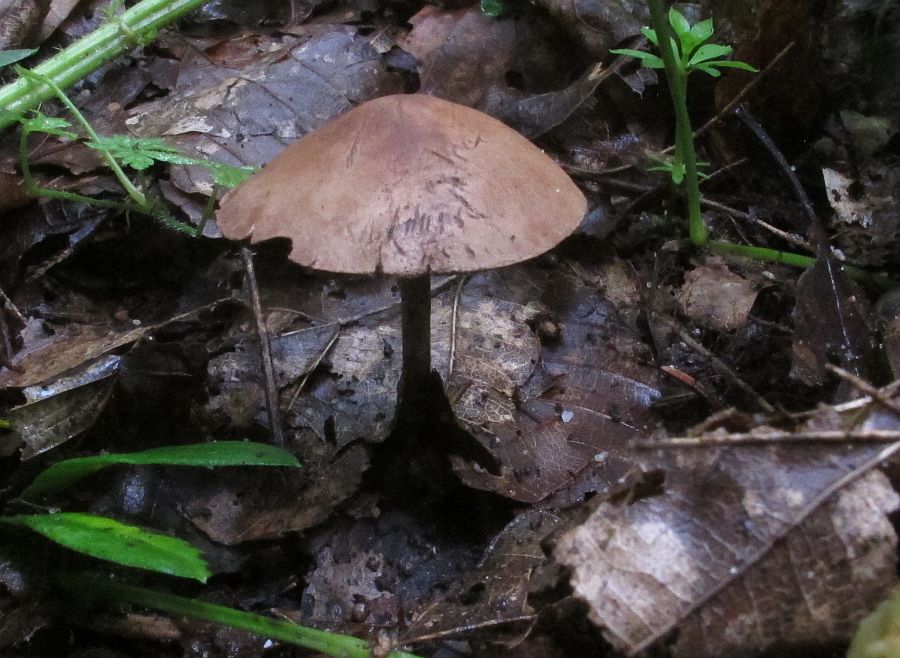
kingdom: Fungi
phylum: Basidiomycota
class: Agaricomycetes
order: Agaricales
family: Agaricaceae
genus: Melanophyllum
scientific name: Melanophyllum haematospermum
